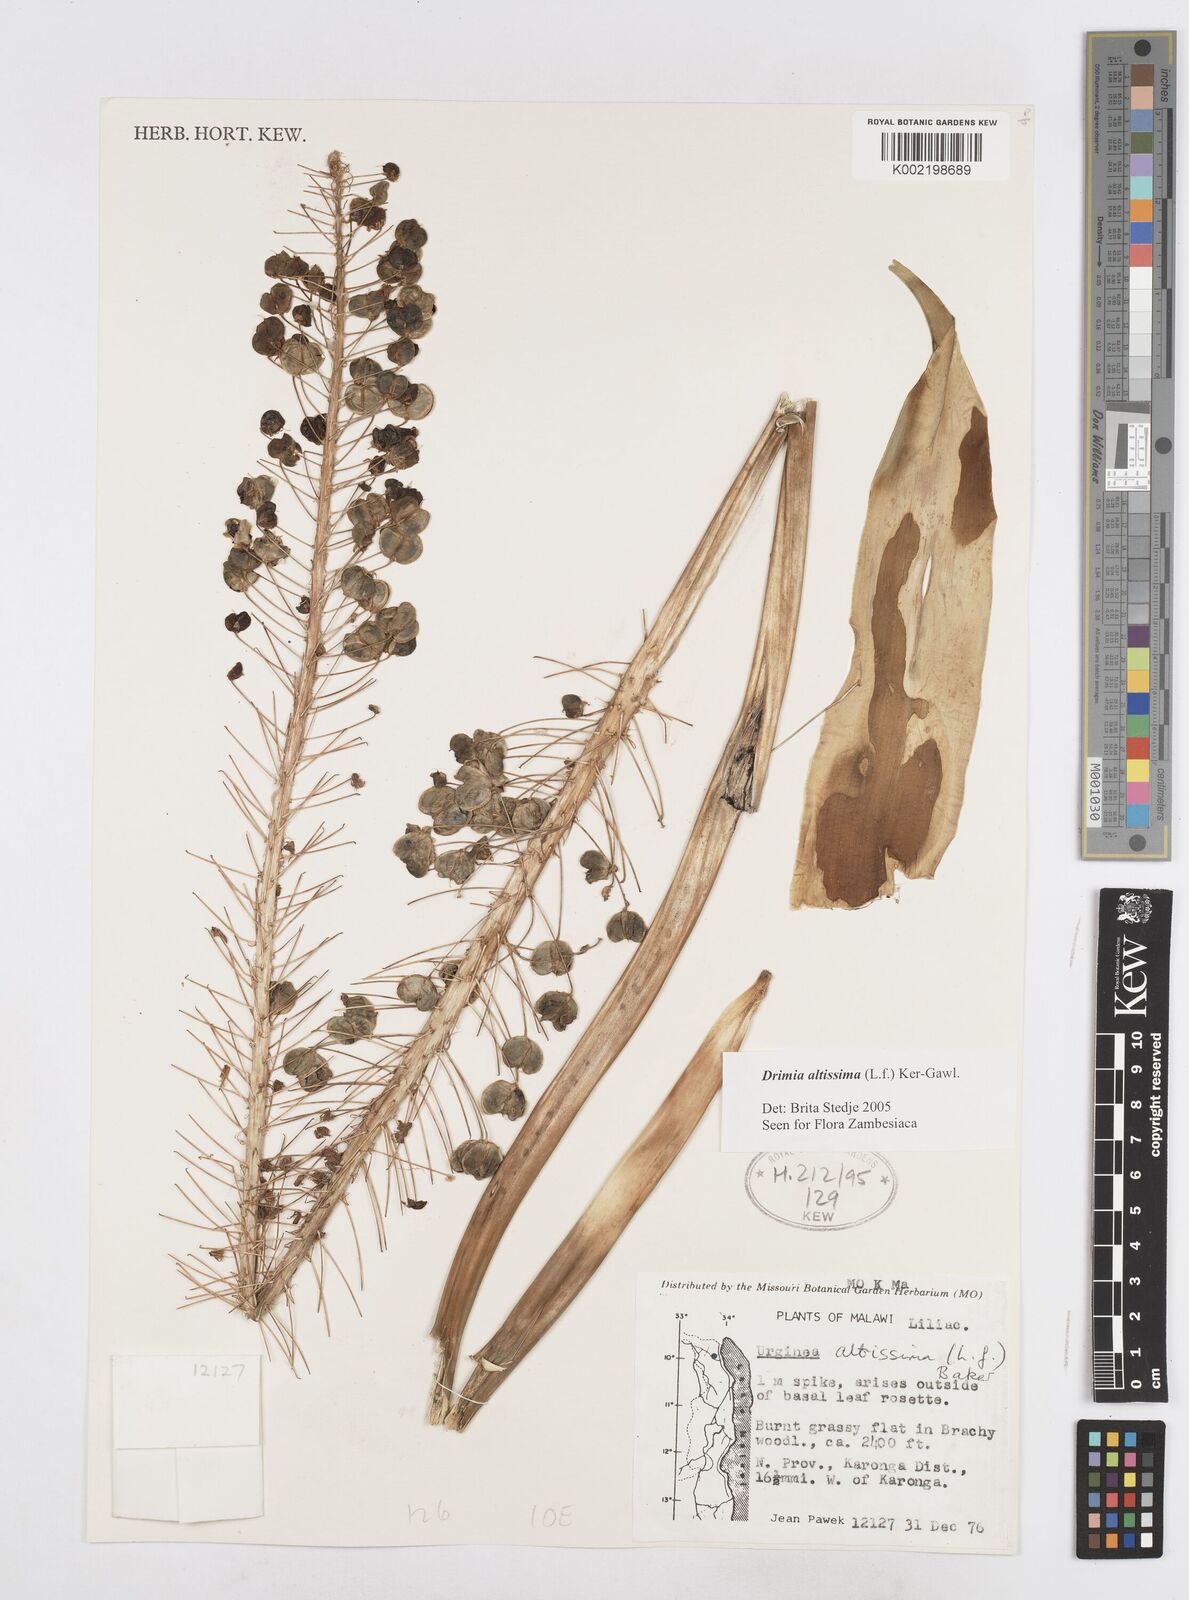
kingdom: Plantae
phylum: Tracheophyta
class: Liliopsida
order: Asparagales
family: Asparagaceae
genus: Drimia
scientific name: Drimia
